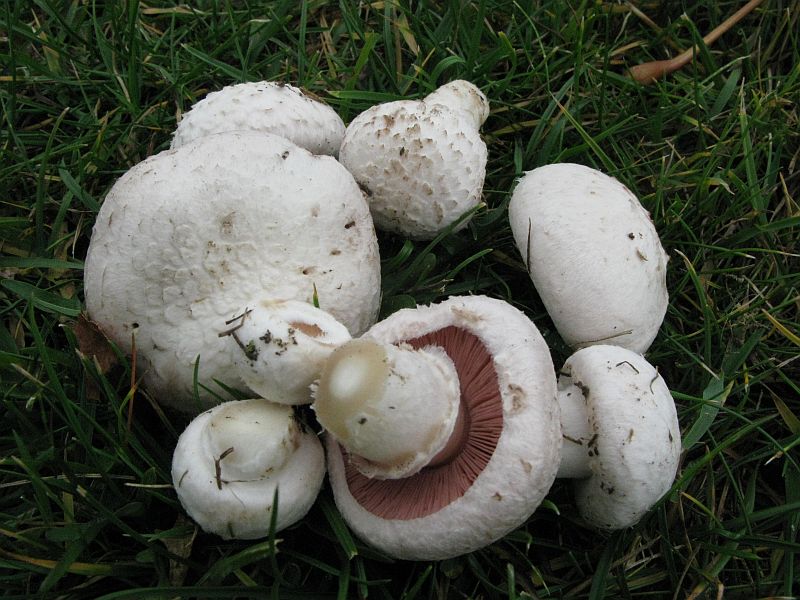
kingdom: Fungi
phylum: Basidiomycota
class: Agaricomycetes
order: Agaricales
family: Agaricaceae
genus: Agaricus
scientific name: Agaricus campestris
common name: mark-champignon
